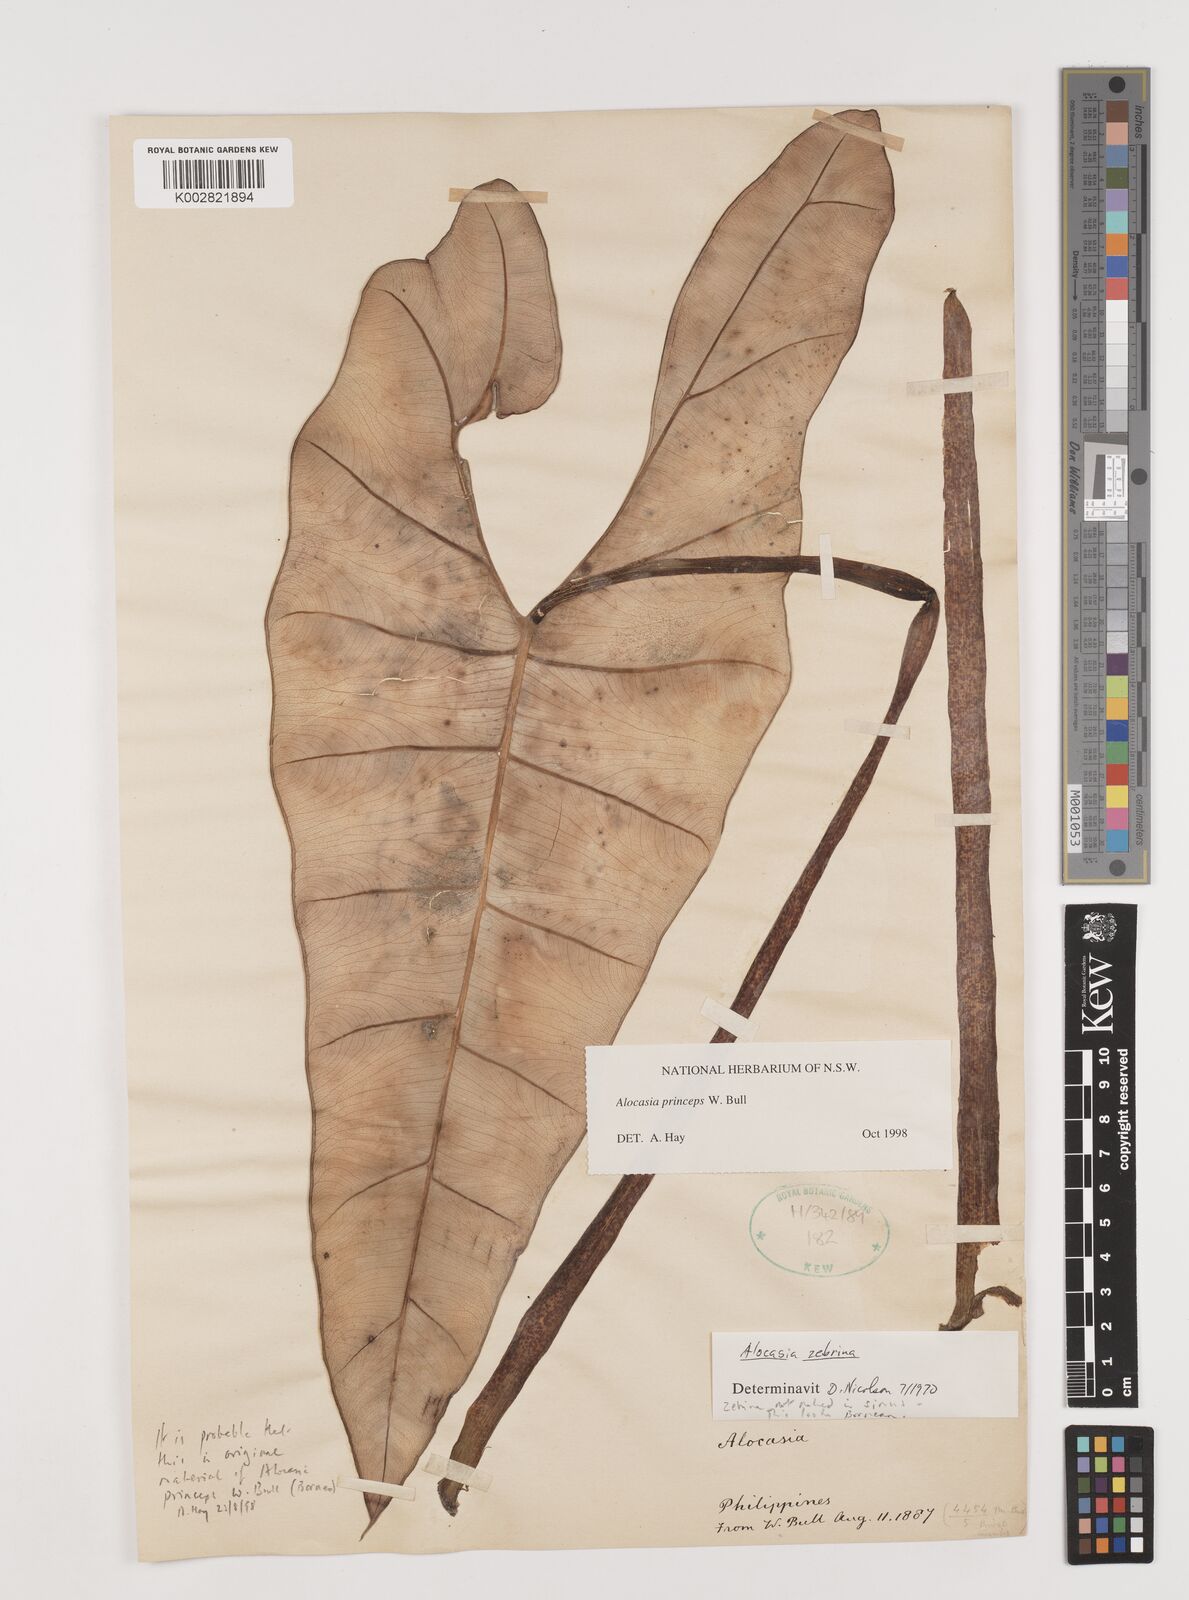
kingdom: Plantae
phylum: Tracheophyta
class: Liliopsida
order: Alismatales
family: Araceae
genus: Alocasia
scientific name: Alocasia princeps
